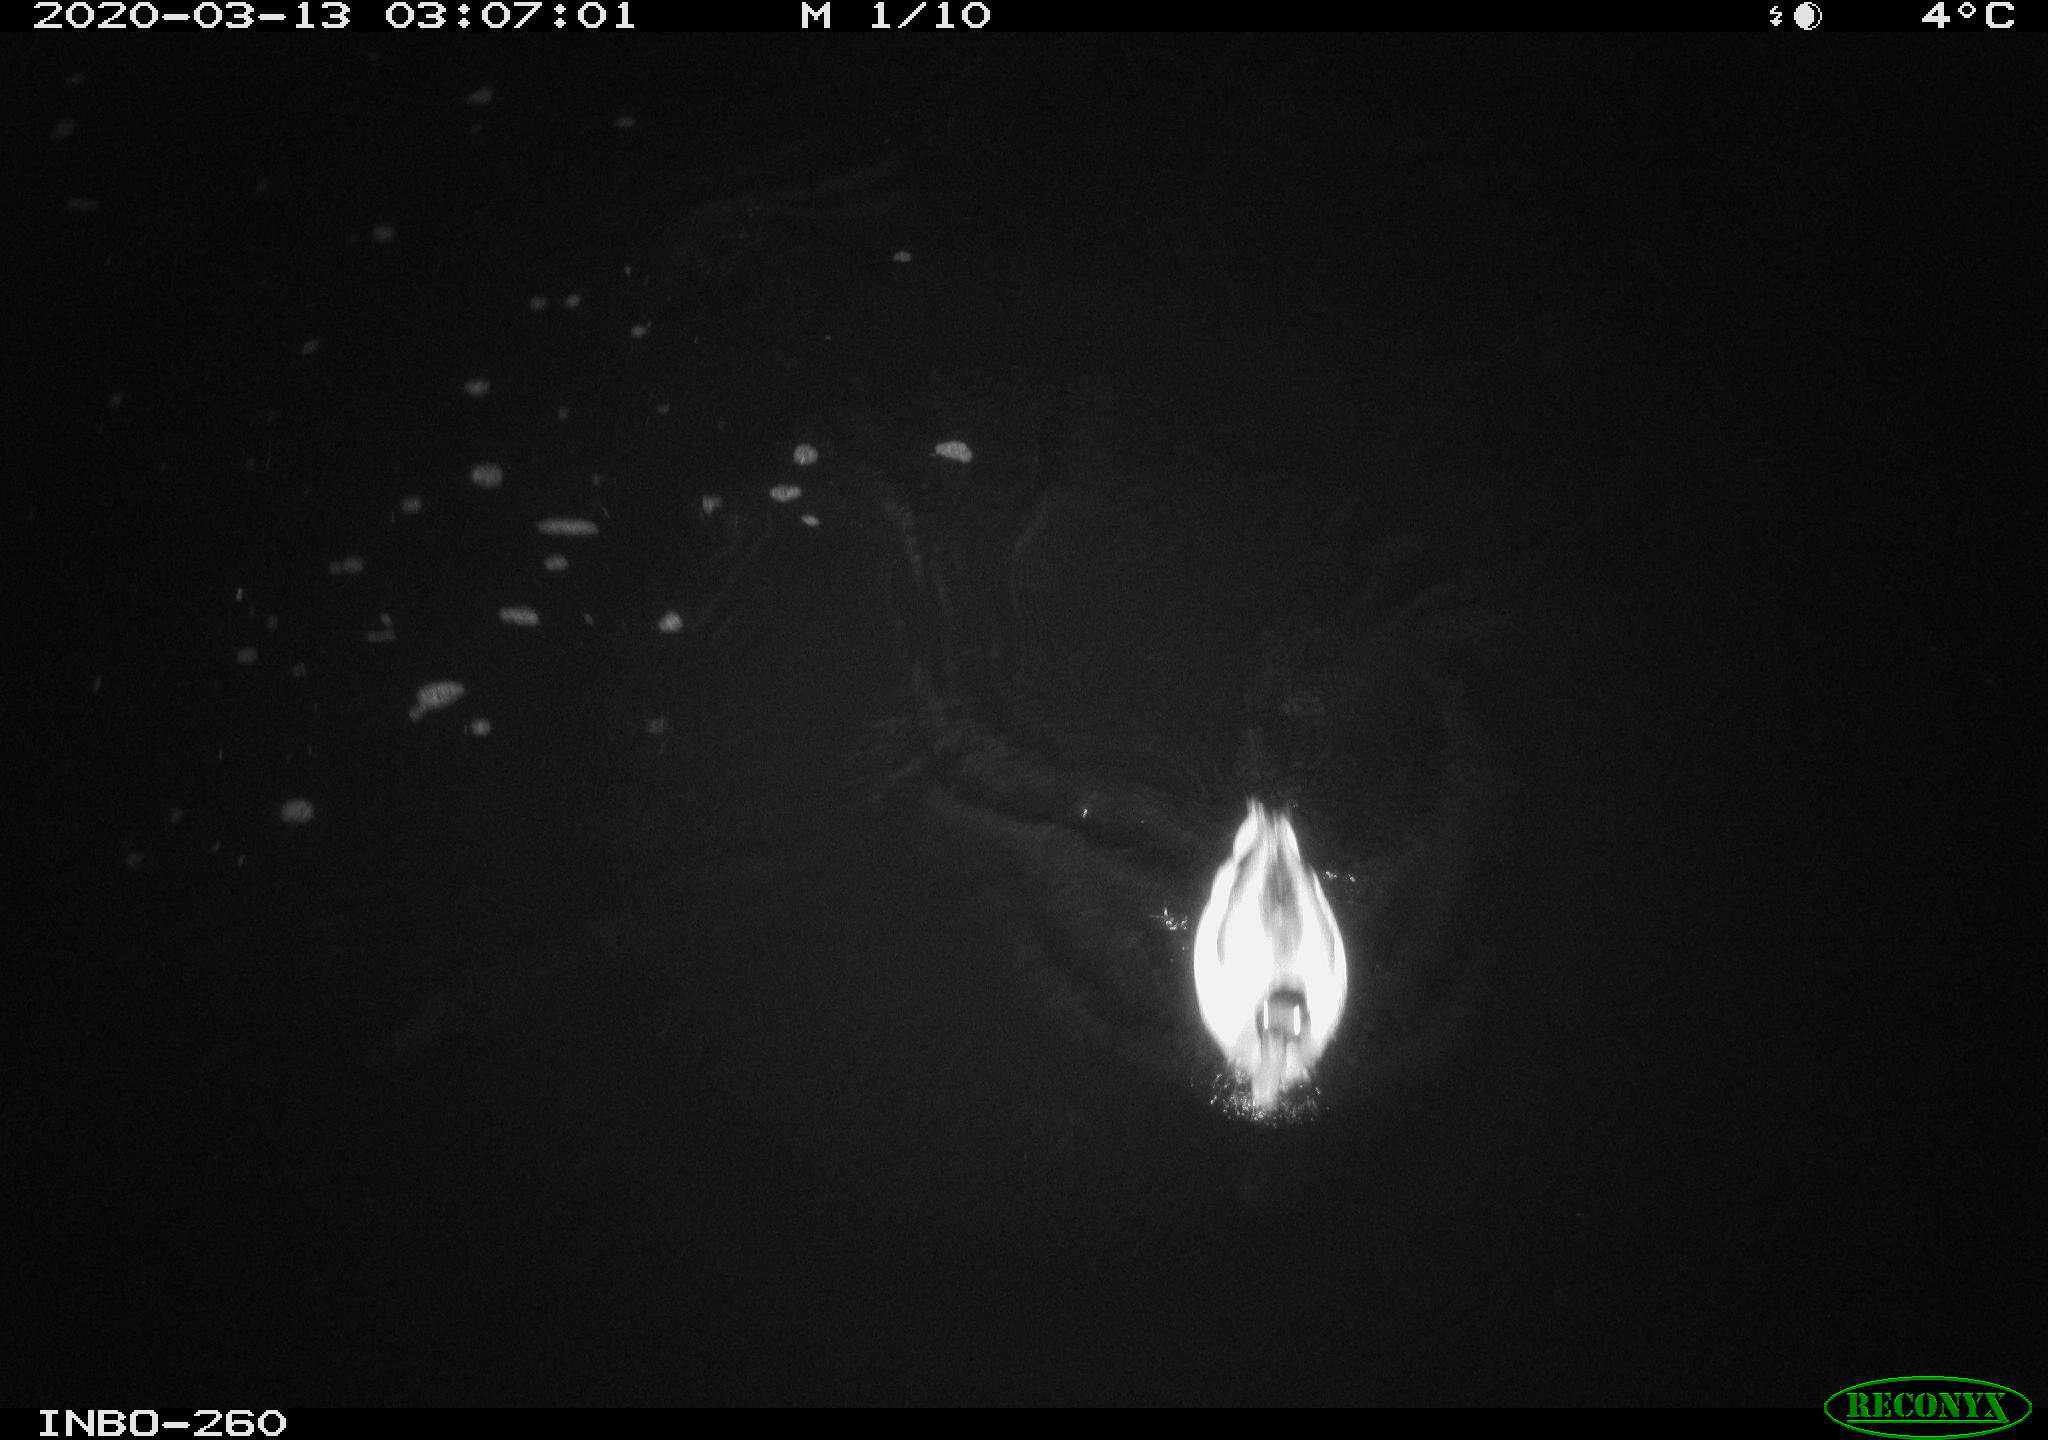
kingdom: Animalia
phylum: Chordata
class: Aves
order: Anseriformes
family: Anatidae
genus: Anas
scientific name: Anas platyrhynchos
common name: Mallard
